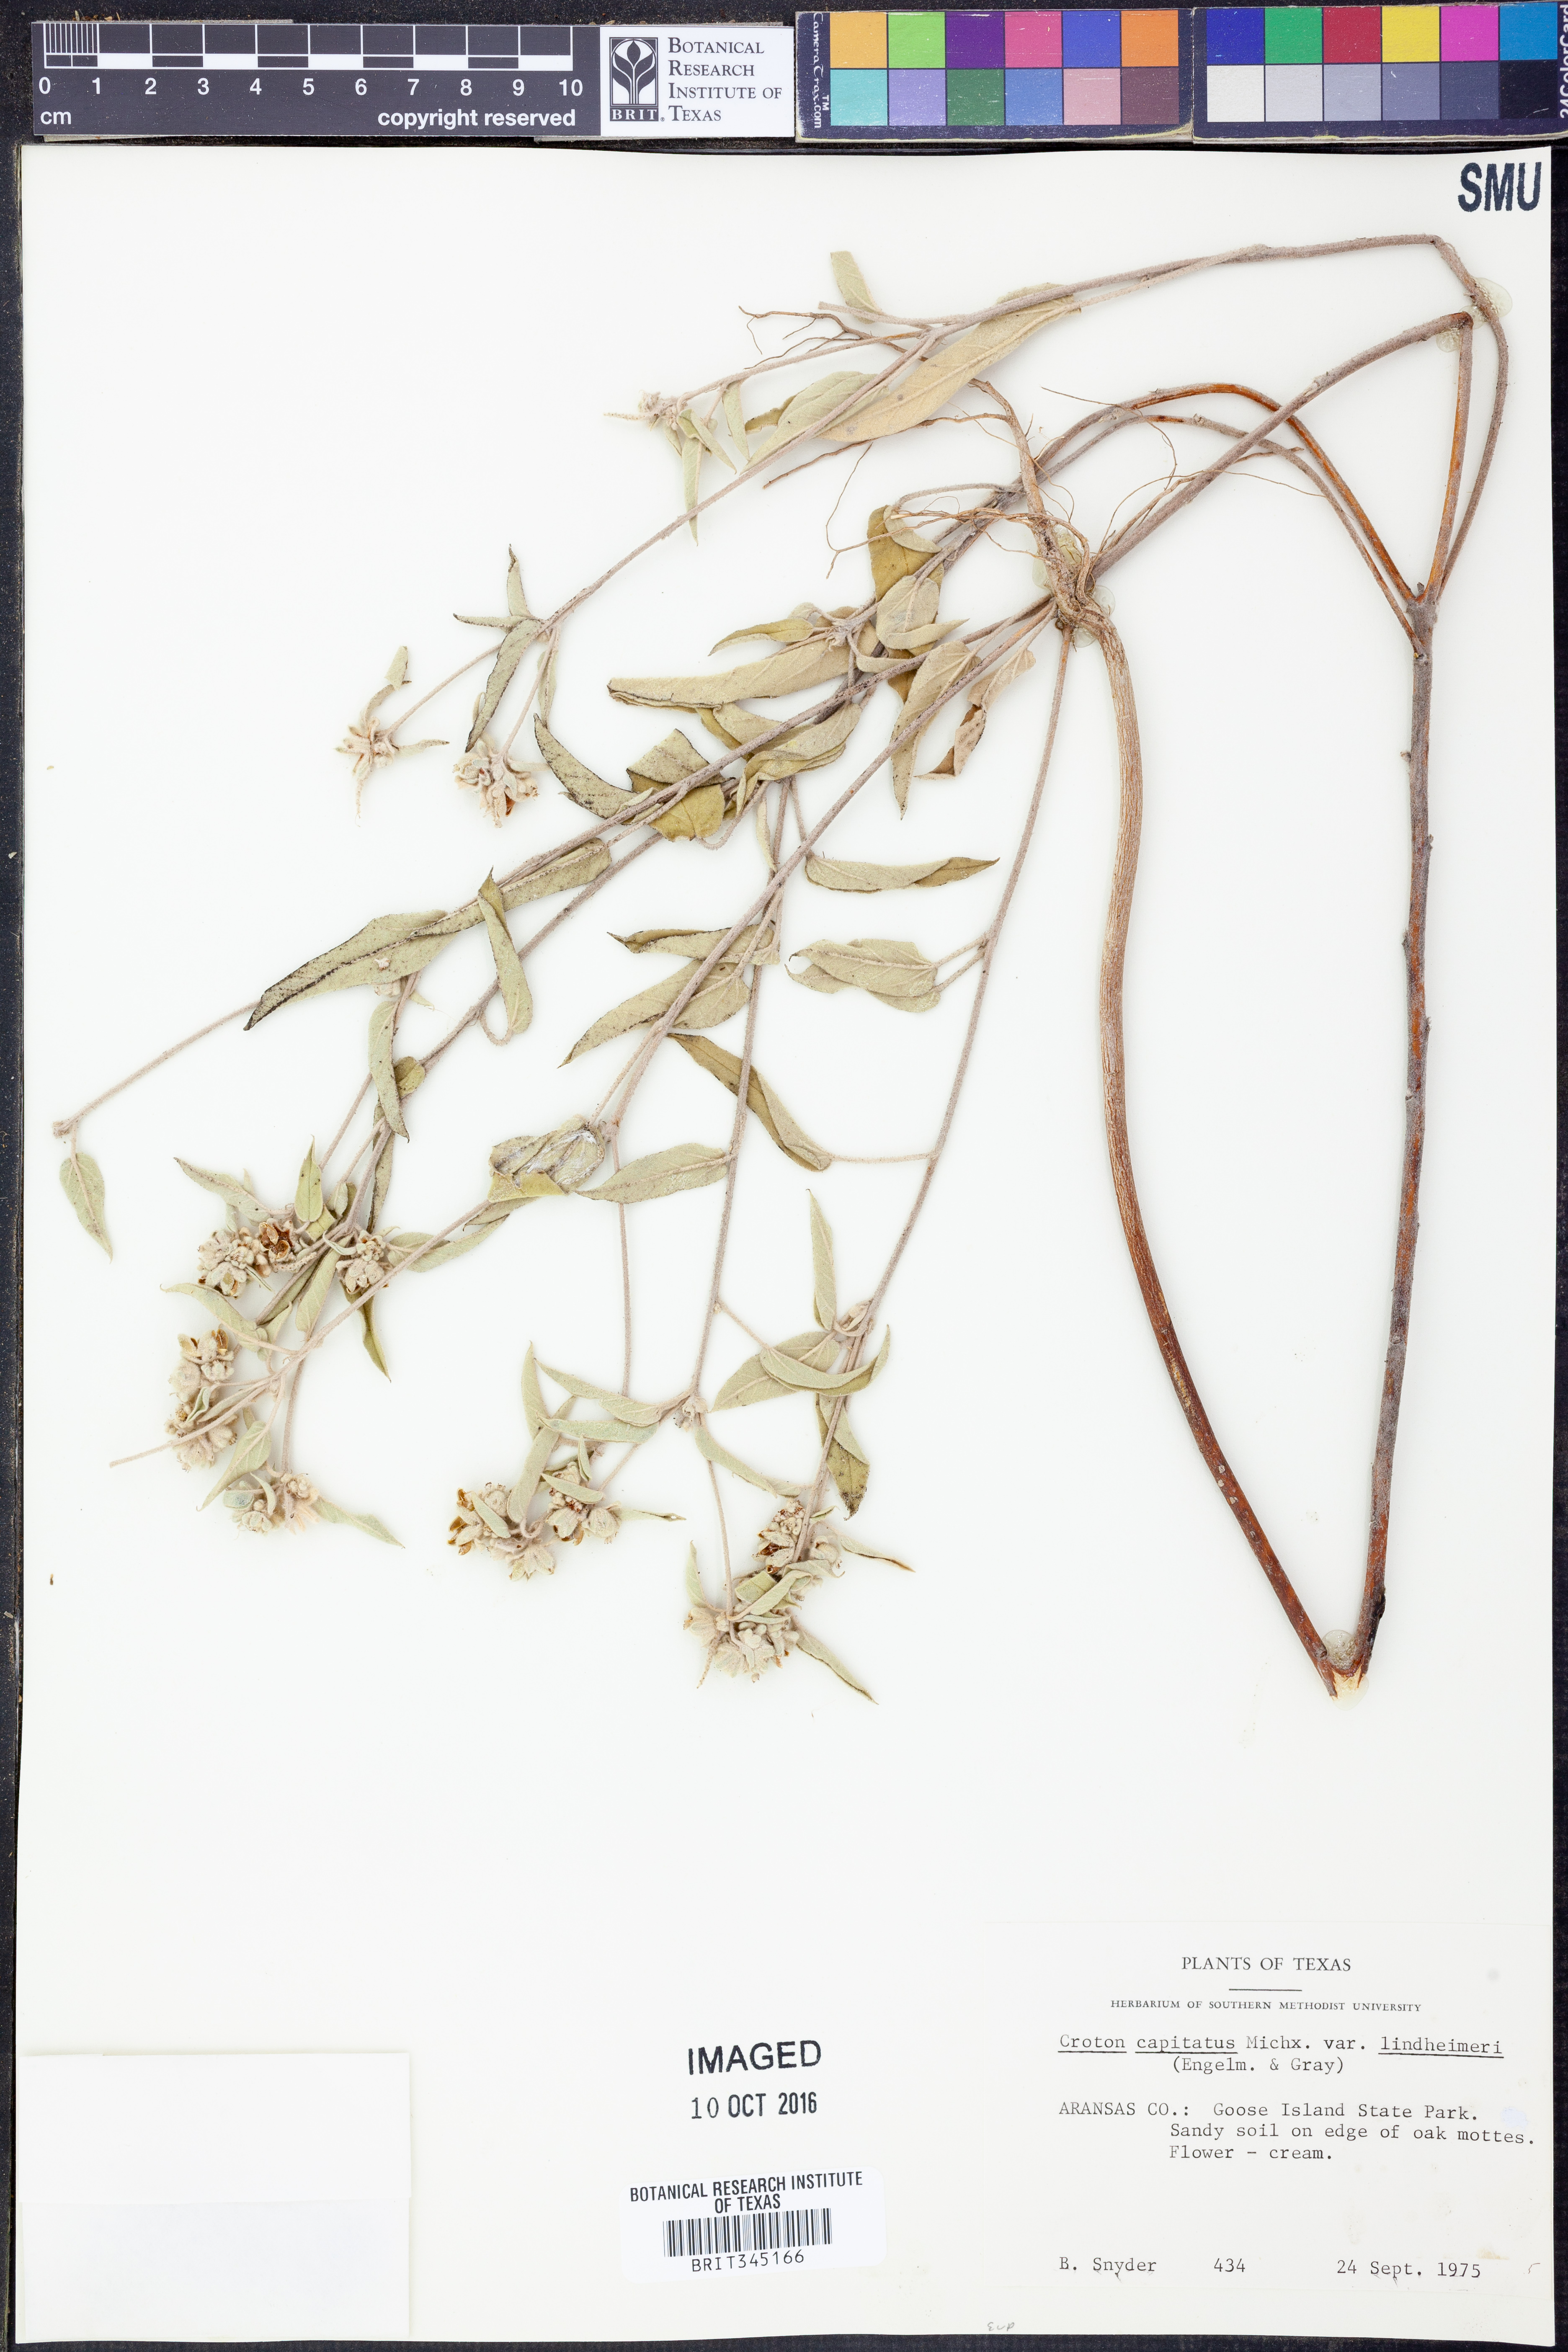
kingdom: Plantae
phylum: Tracheophyta
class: Magnoliopsida
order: Malpighiales
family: Euphorbiaceae
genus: Croton
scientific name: Croton lindheimeri
